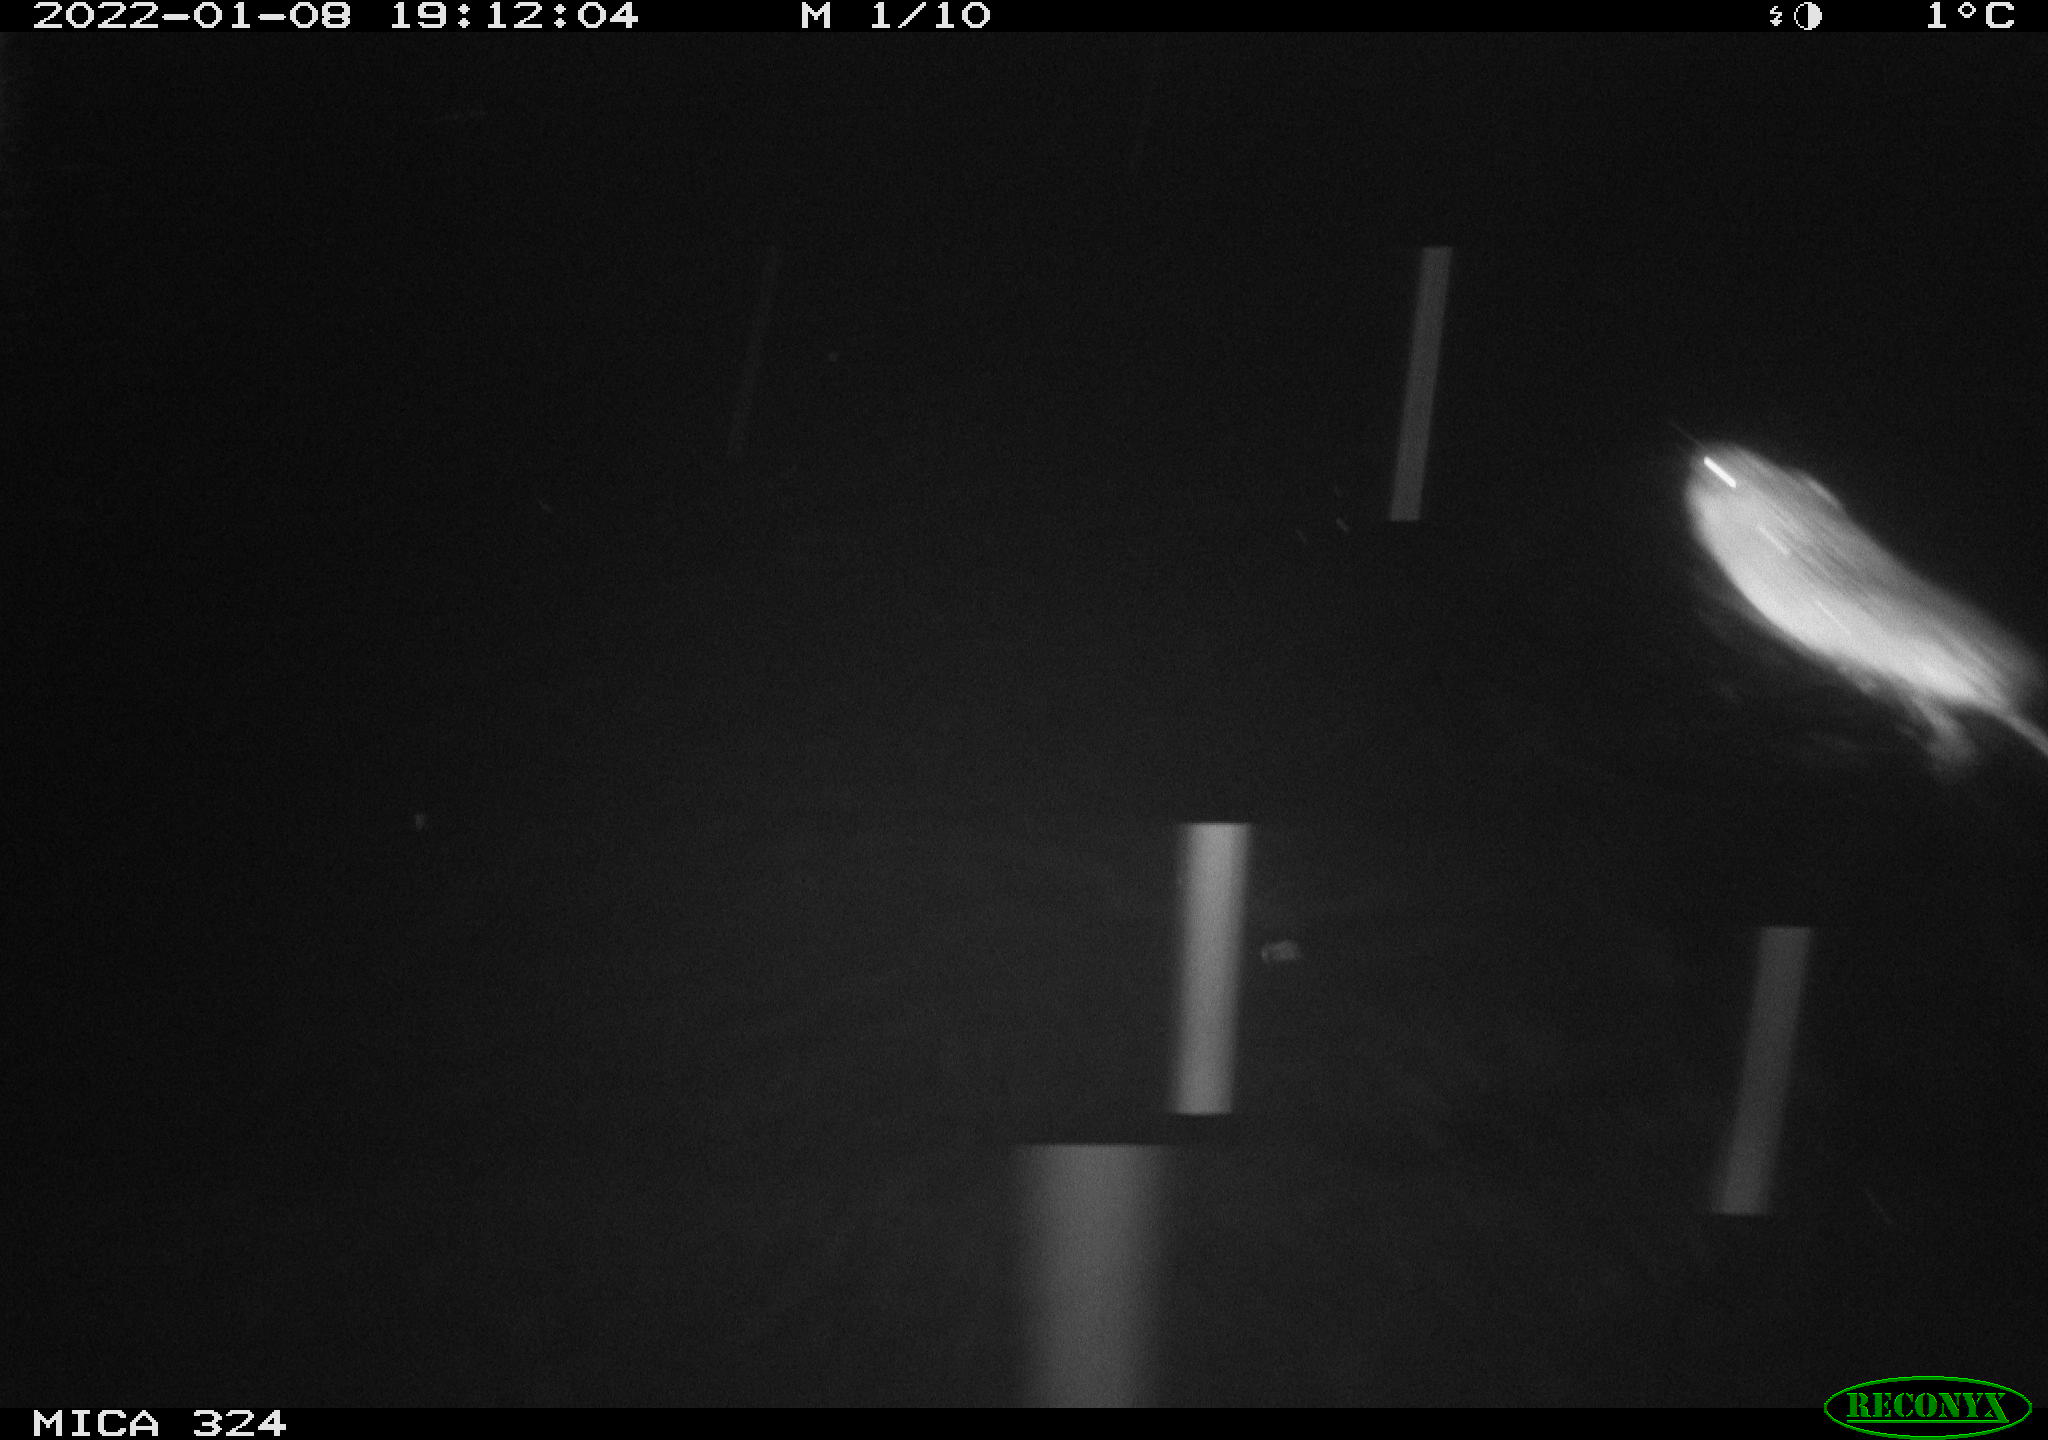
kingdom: Animalia
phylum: Chordata
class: Mammalia
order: Rodentia
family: Cricetidae
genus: Ondatra
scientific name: Ondatra zibethicus
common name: Muskrat
